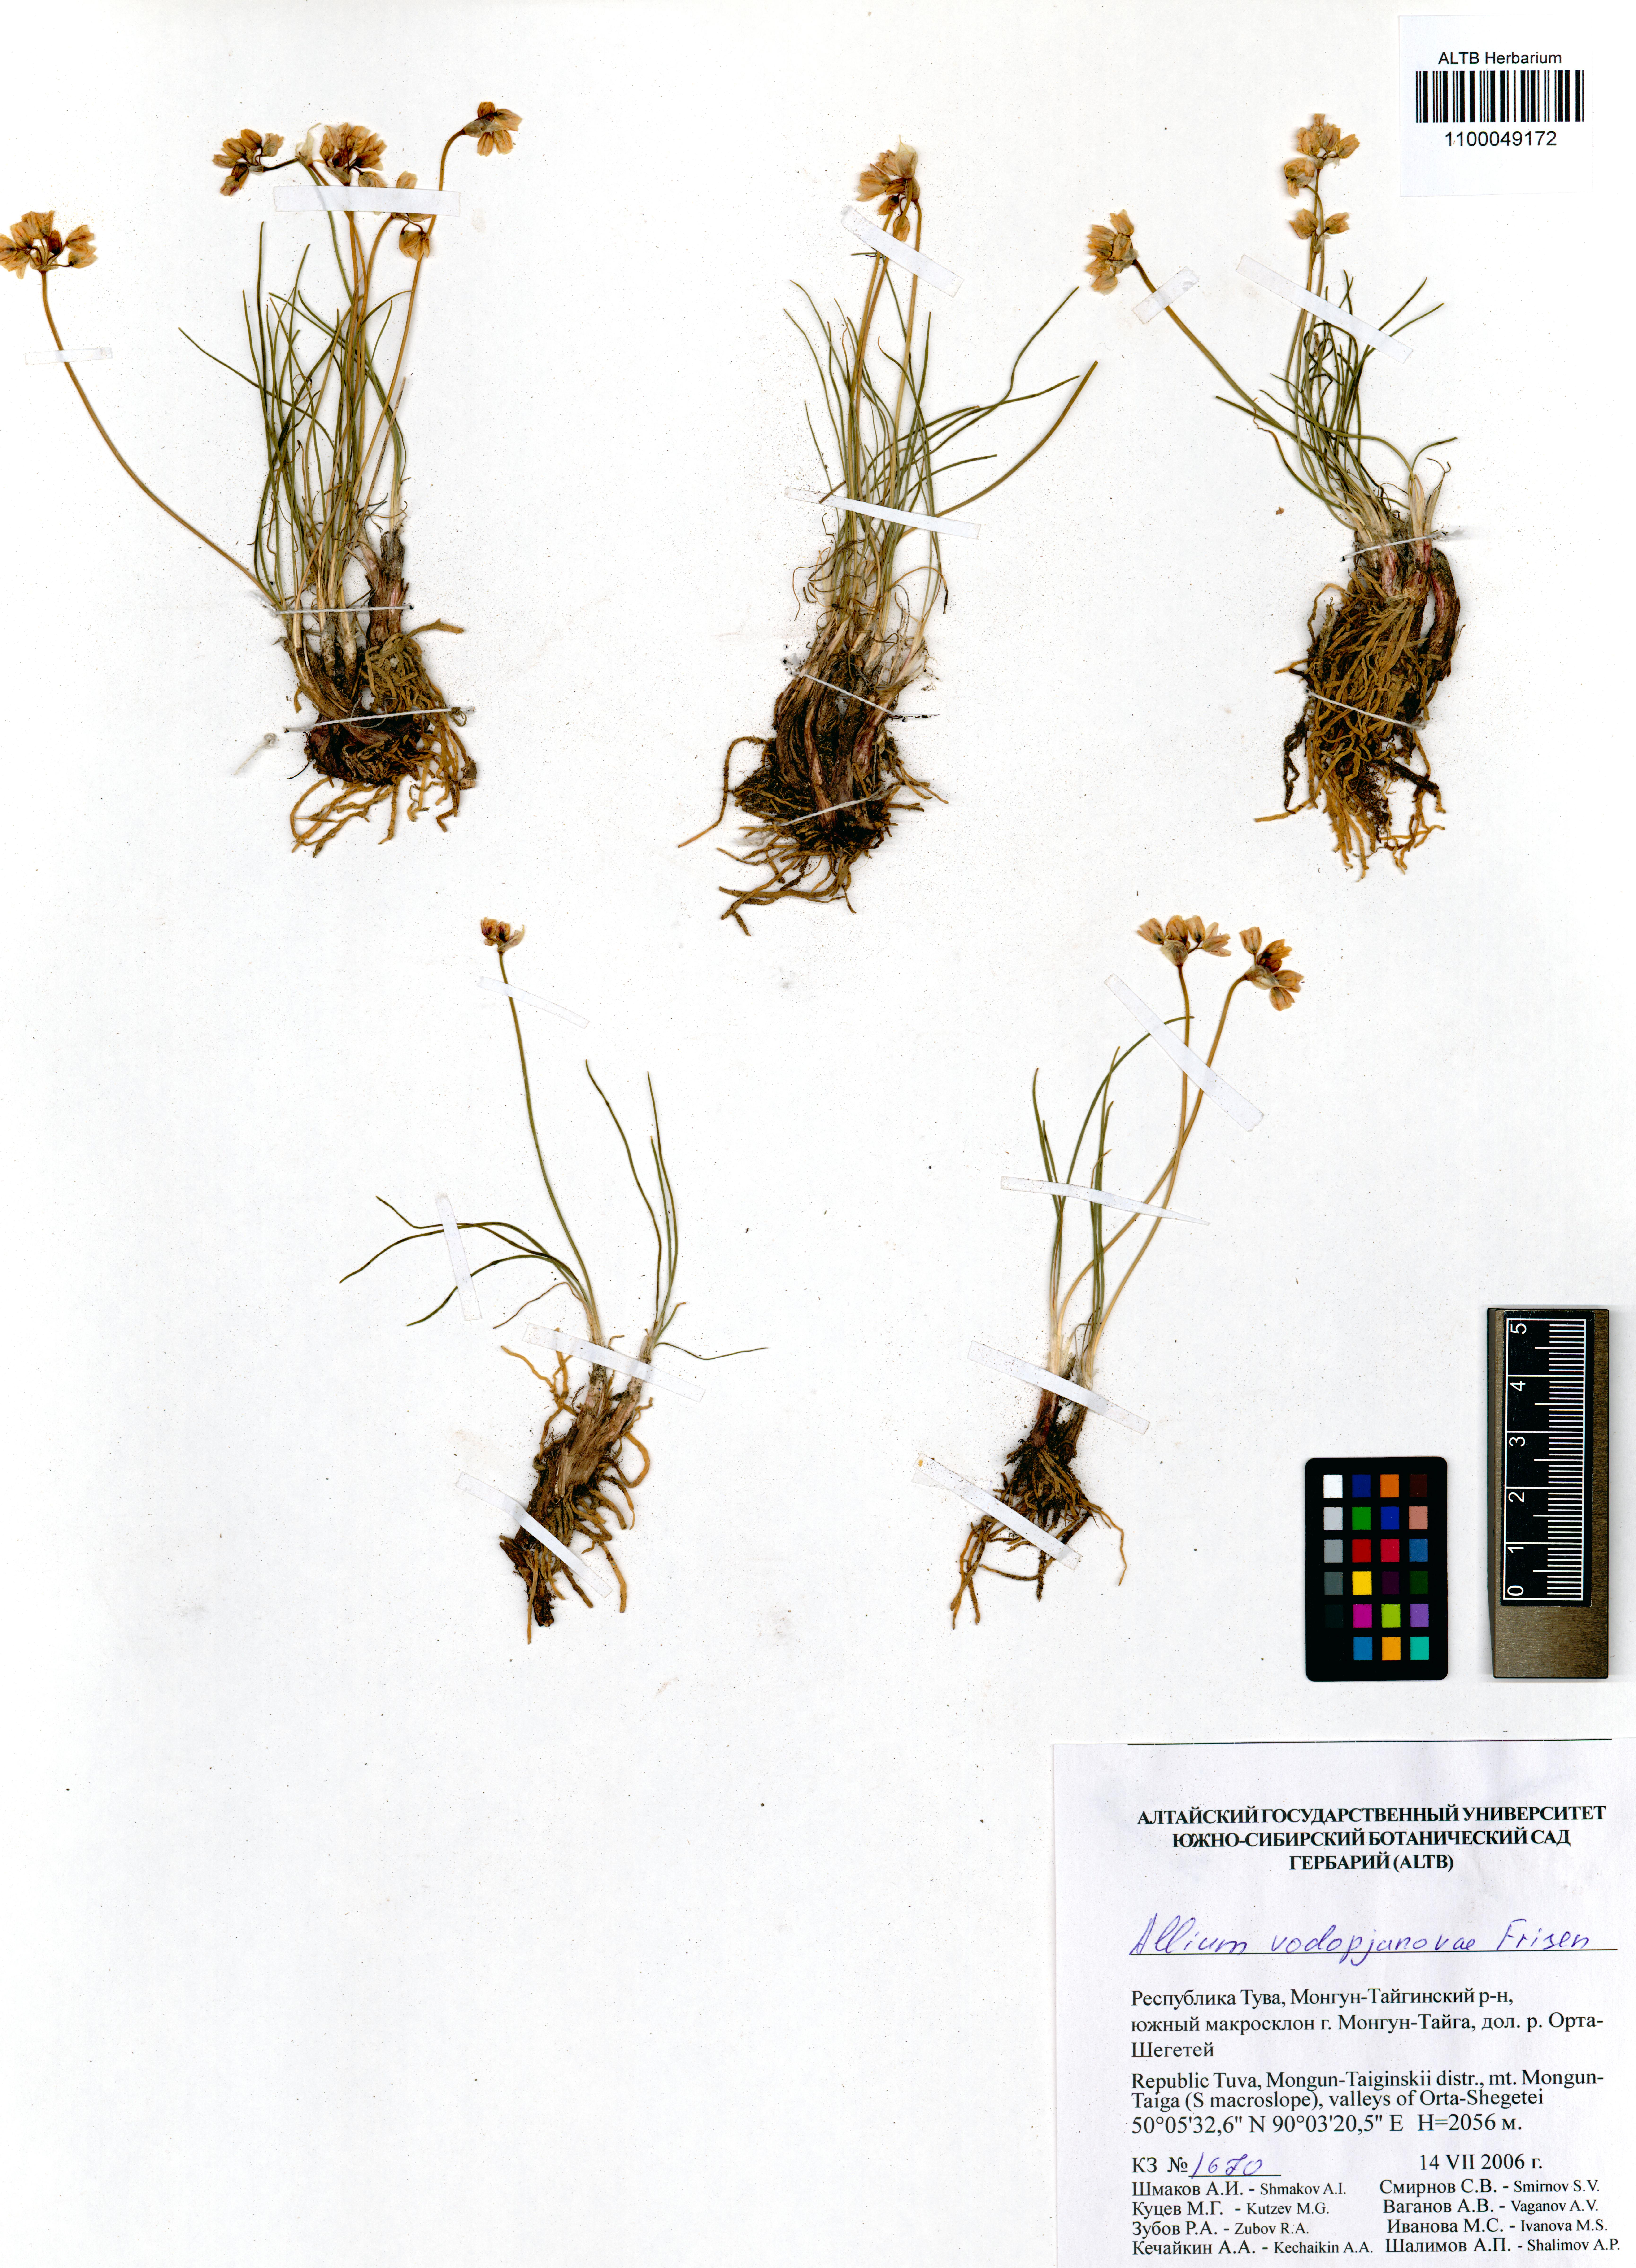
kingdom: Plantae
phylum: Tracheophyta
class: Liliopsida
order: Asparagales
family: Amaryllidaceae
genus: Allium
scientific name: Allium vodopjanovae
